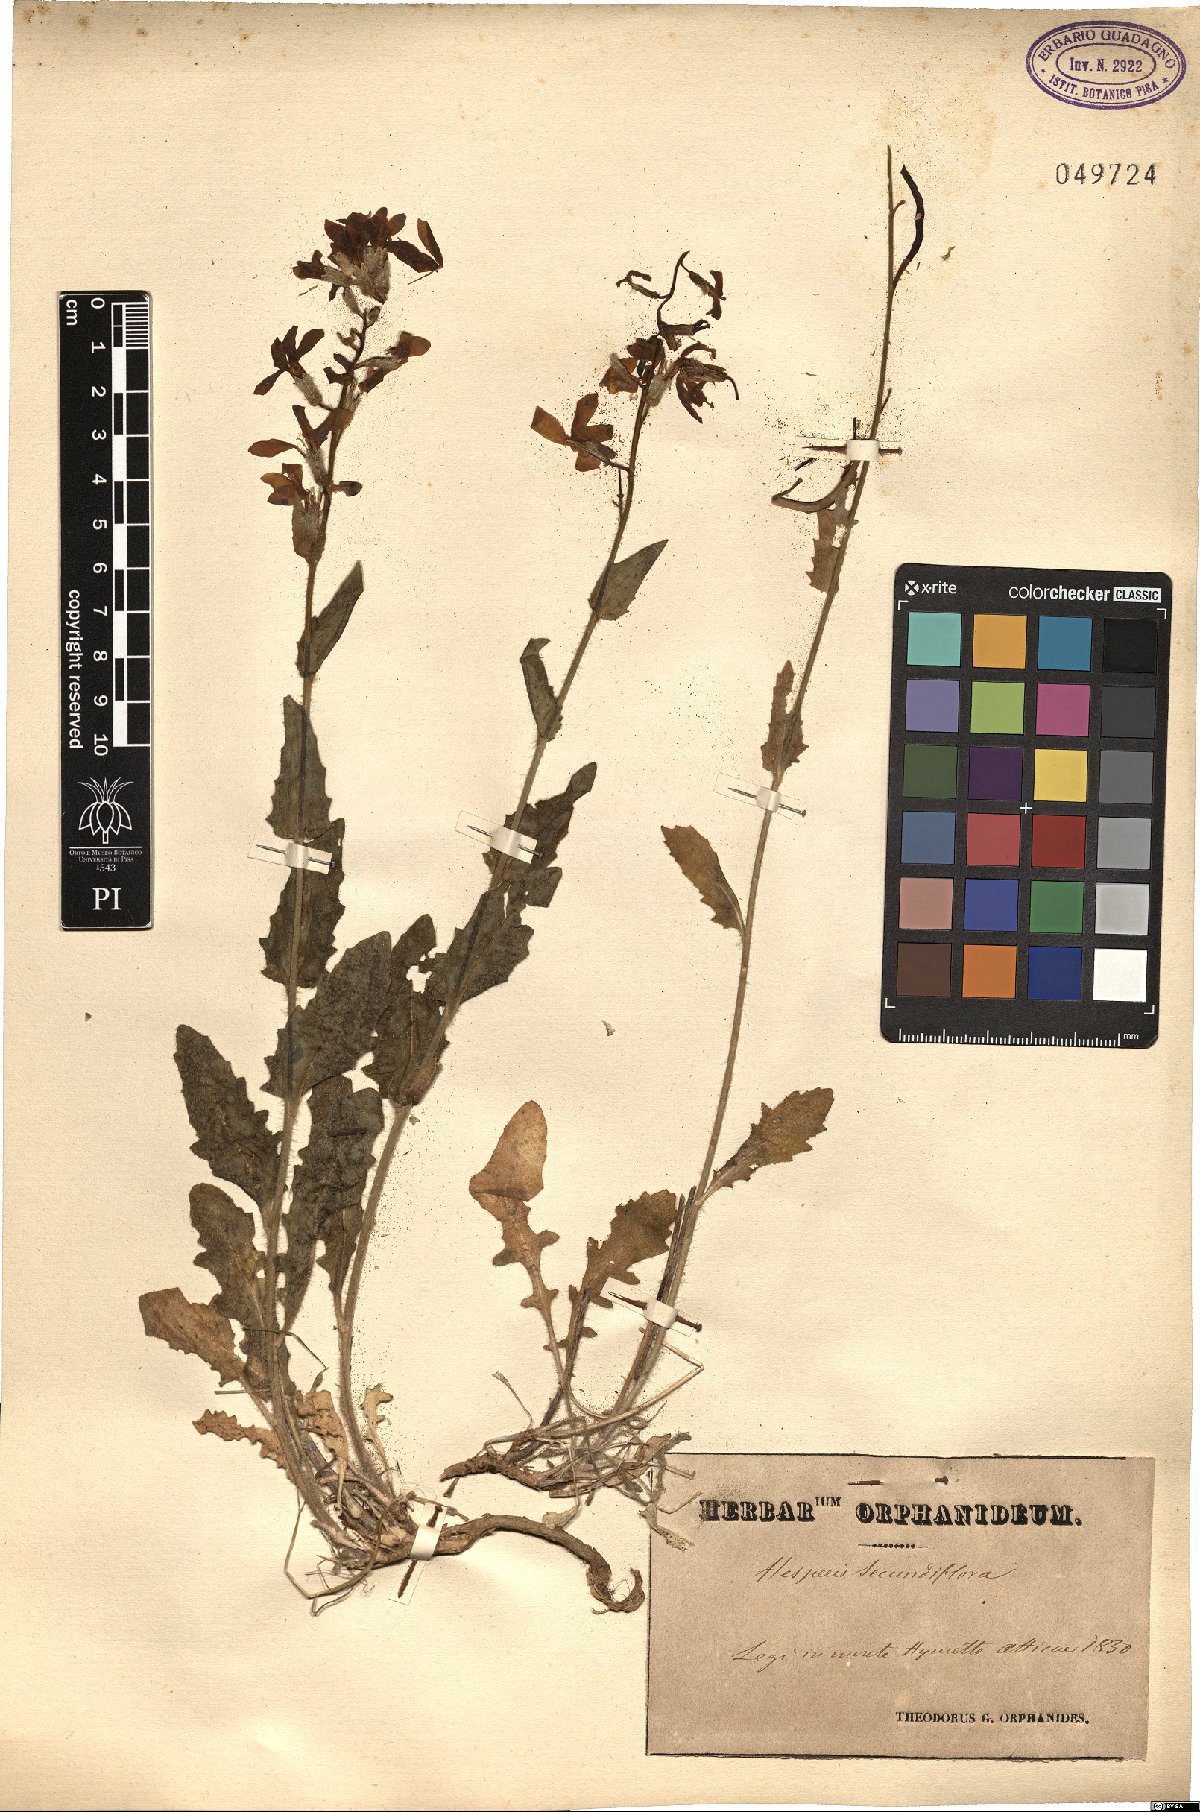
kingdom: Plantae
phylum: Tracheophyta
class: Magnoliopsida
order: Brassicales
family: Brassicaceae
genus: Hesperis
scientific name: Hesperis laciniata
